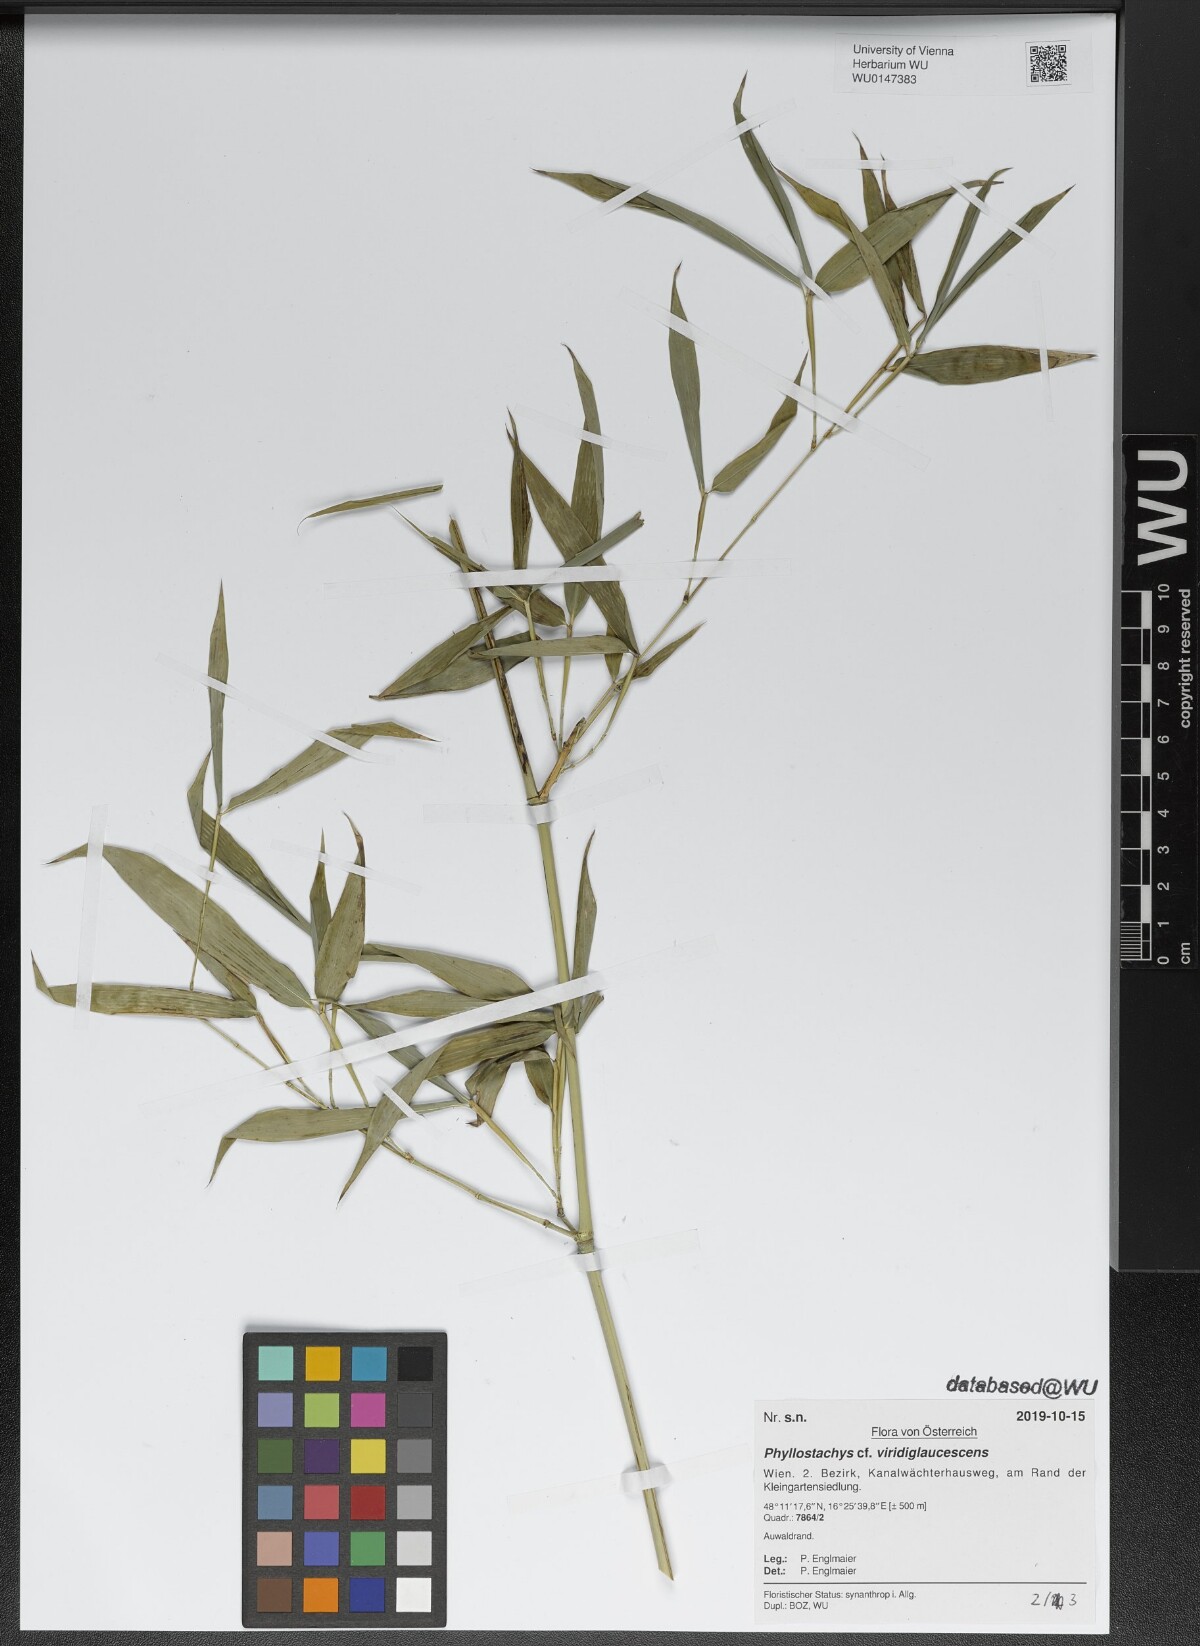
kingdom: Plantae
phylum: Tracheophyta
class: Liliopsida
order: Poales
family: Poaceae
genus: Phyllostachys
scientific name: Phyllostachys viridiglaucescens
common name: Greenwax golden bamboo
